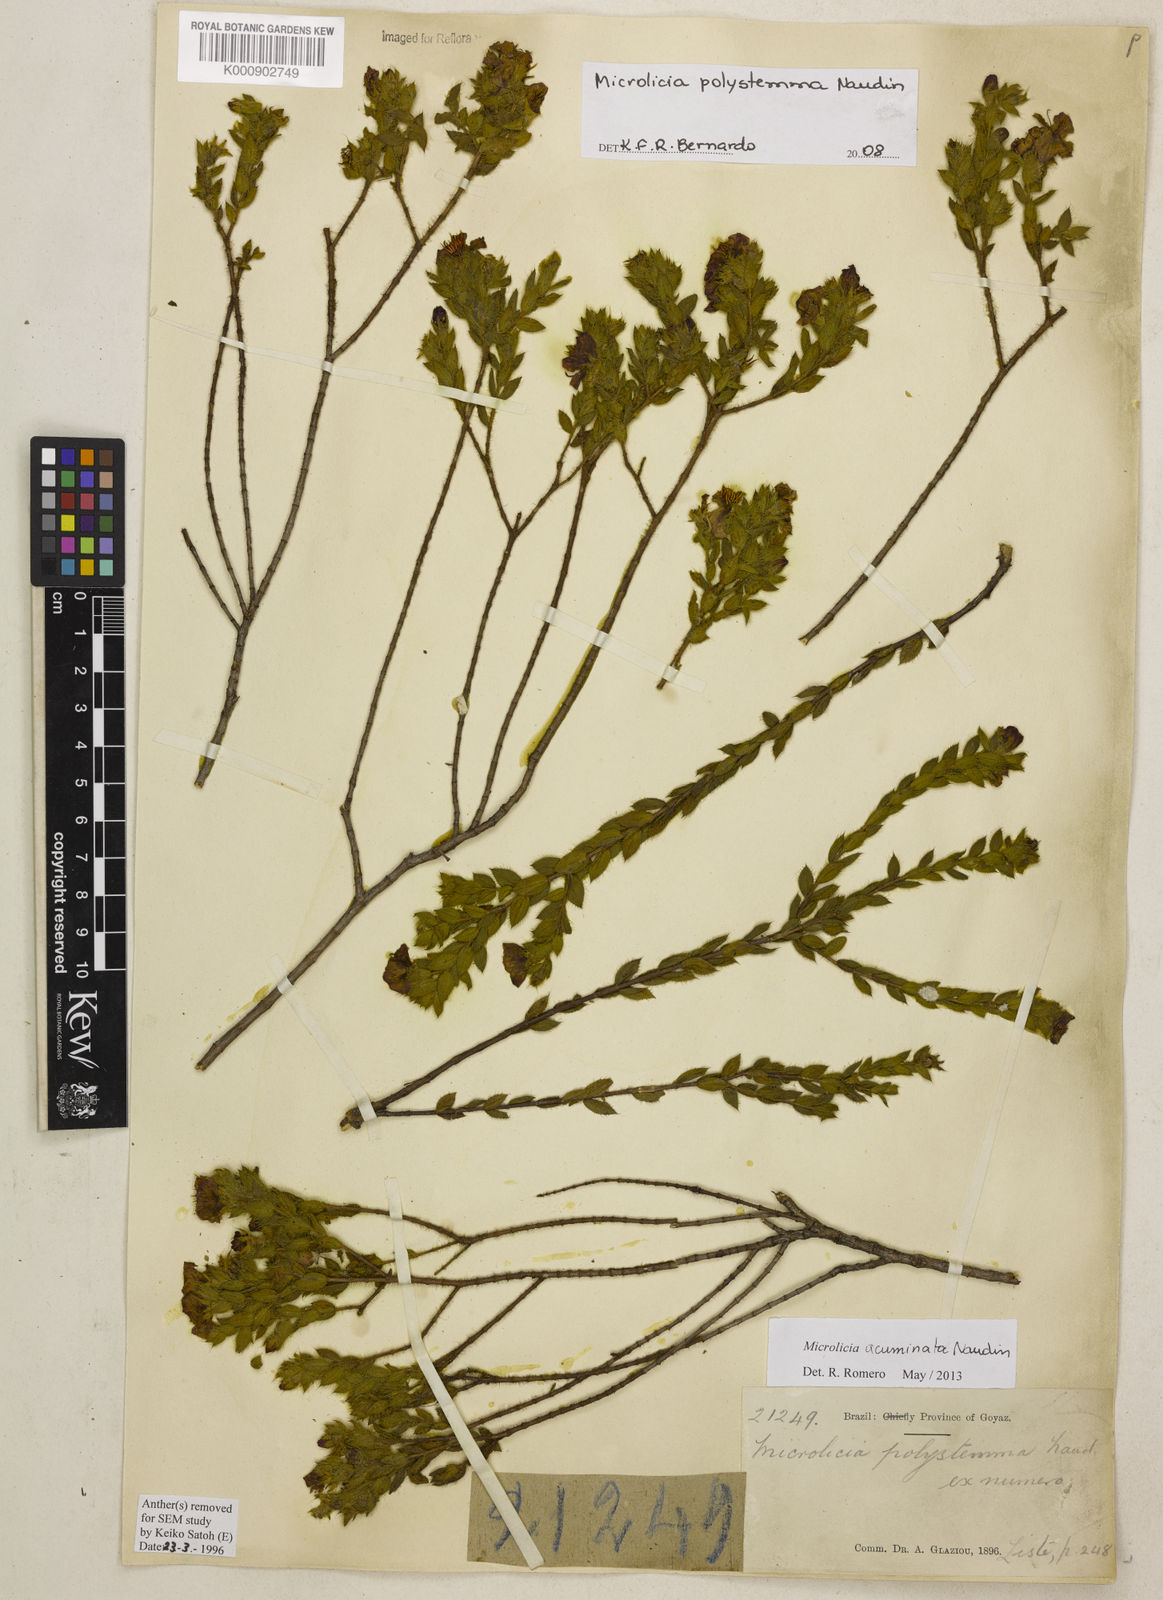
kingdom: Plantae
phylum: Tracheophyta
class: Magnoliopsida
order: Myrtales
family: Melastomataceae
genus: Microlicia
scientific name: Microlicia
